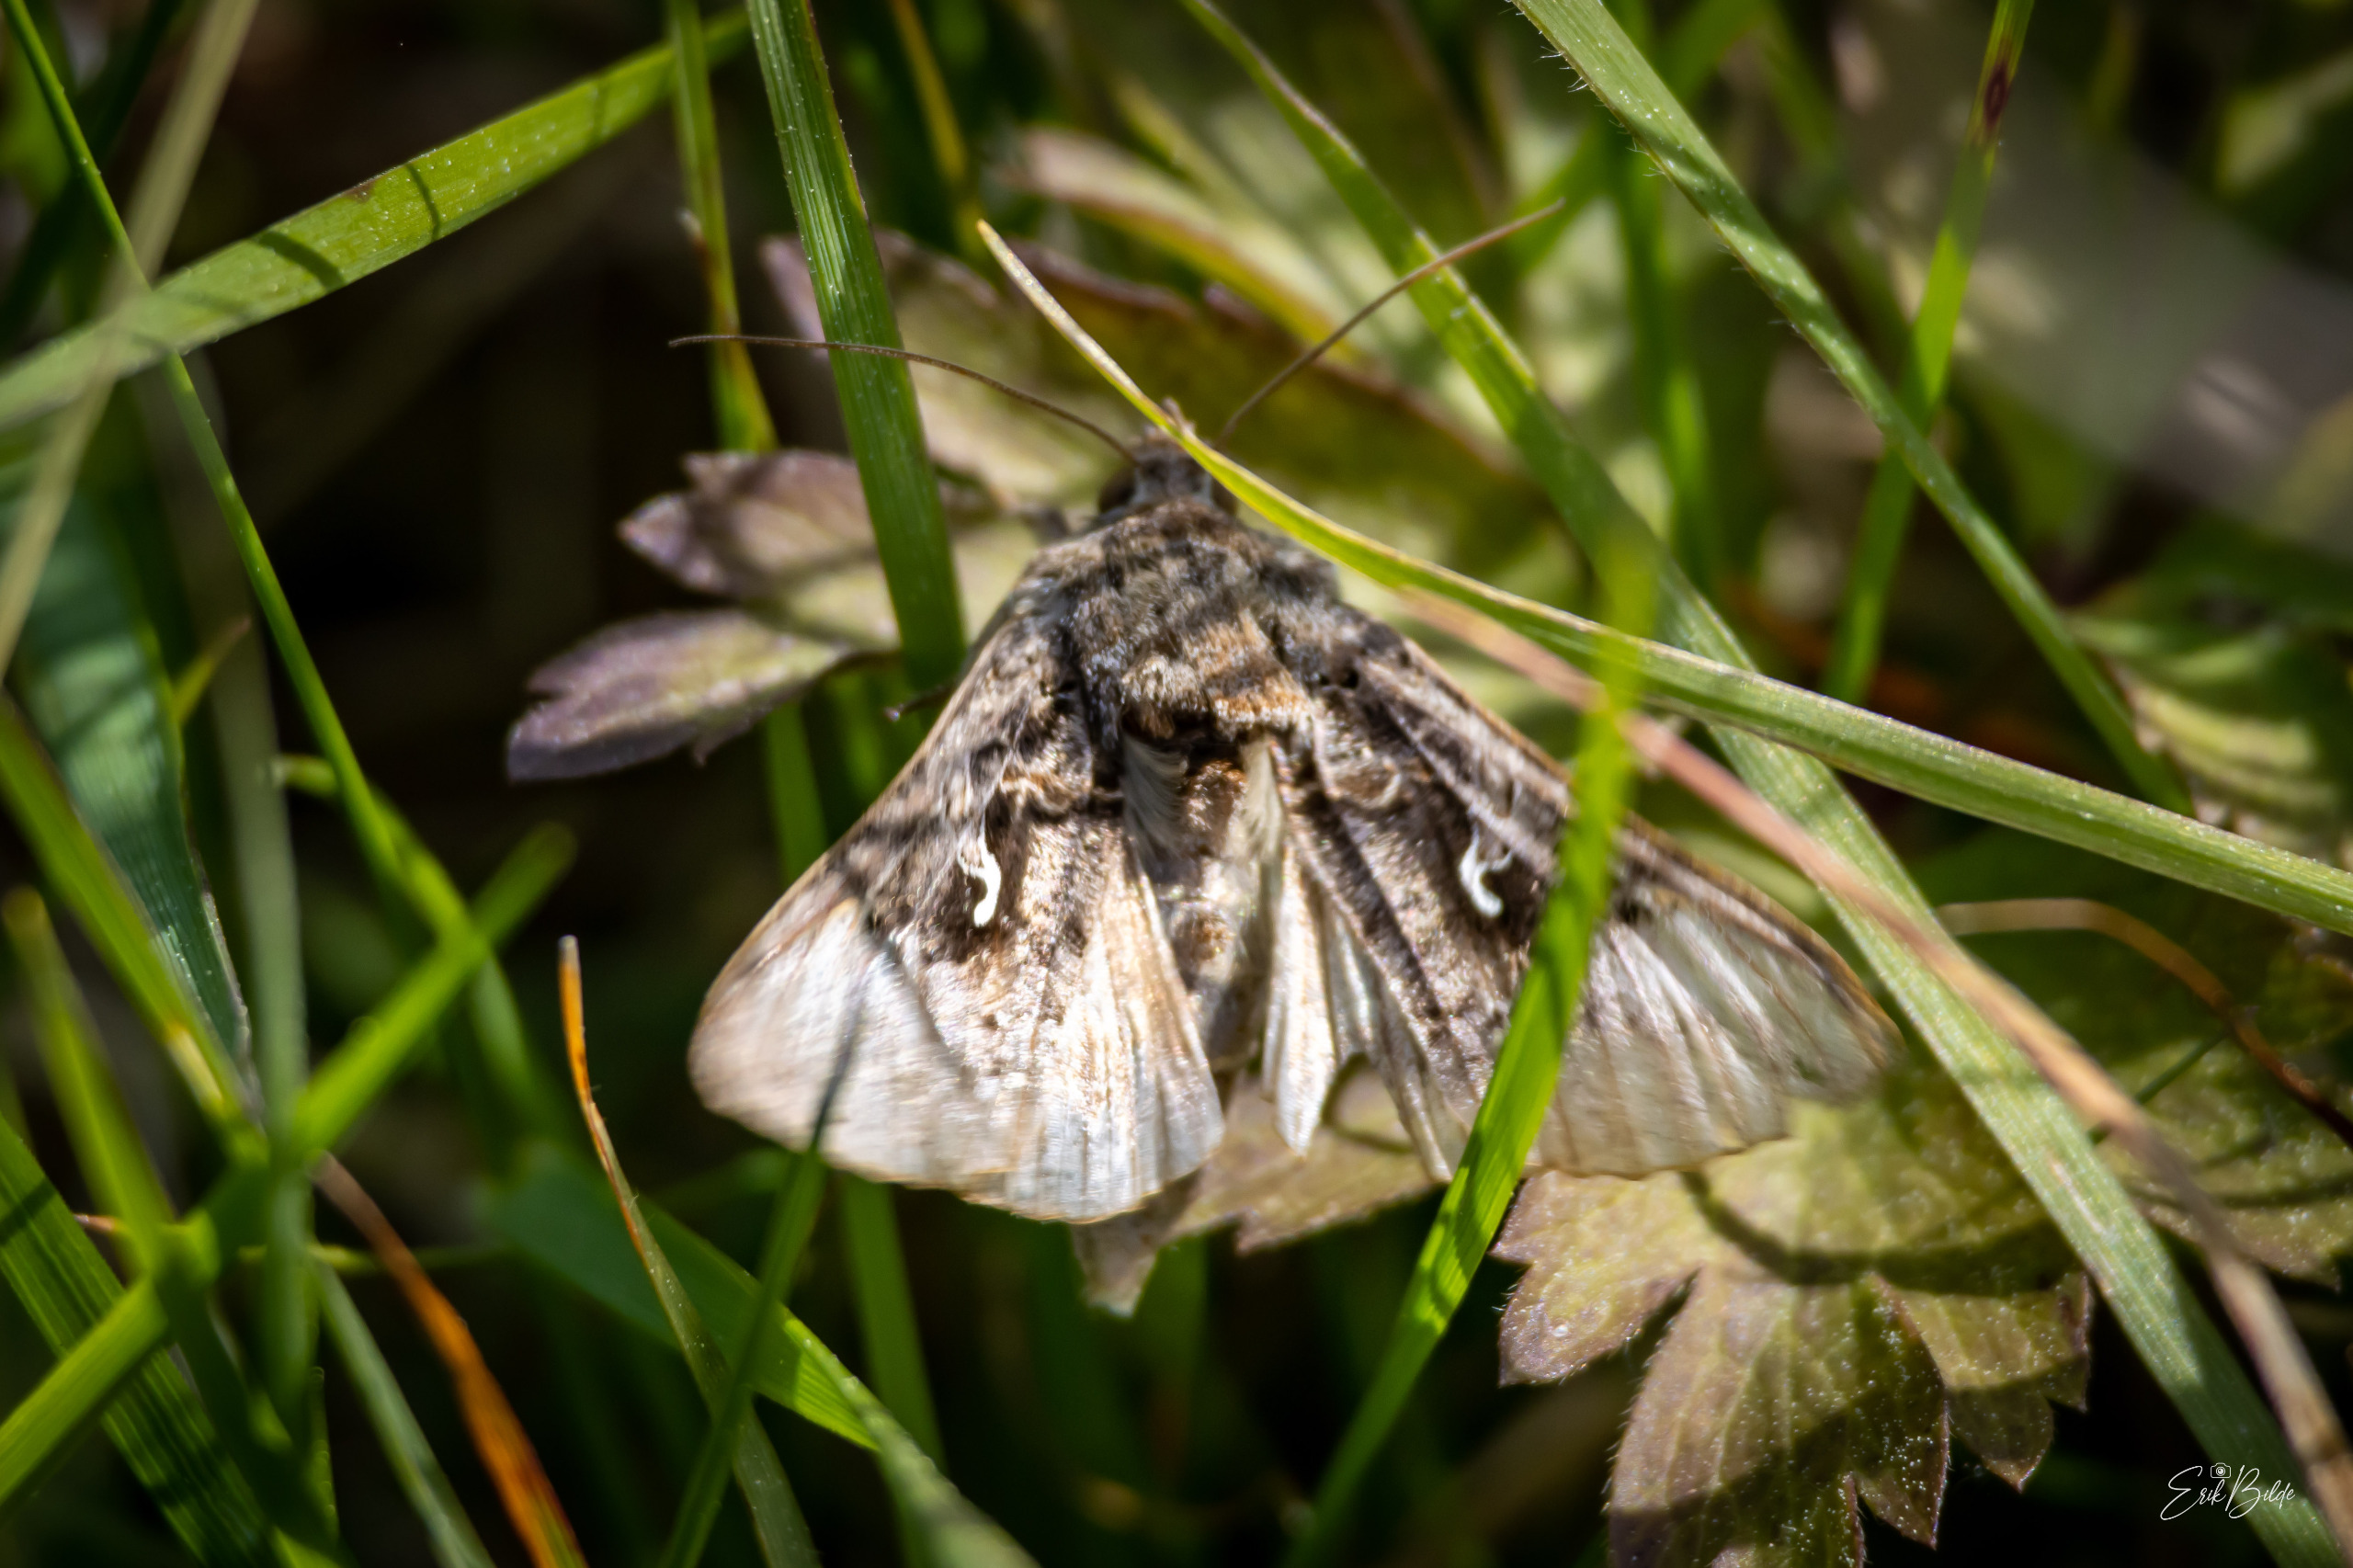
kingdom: Animalia
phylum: Arthropoda
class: Insecta
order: Lepidoptera
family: Noctuidae
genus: Autographa
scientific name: Autographa gamma
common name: Gammaugle
